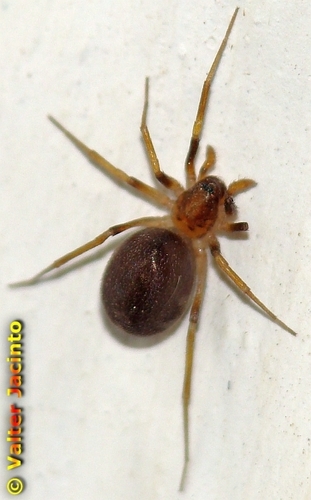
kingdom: Animalia
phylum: Arthropoda
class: Arachnida
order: Araneae
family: Zodariidae
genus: Zodarion
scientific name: Zodarion
